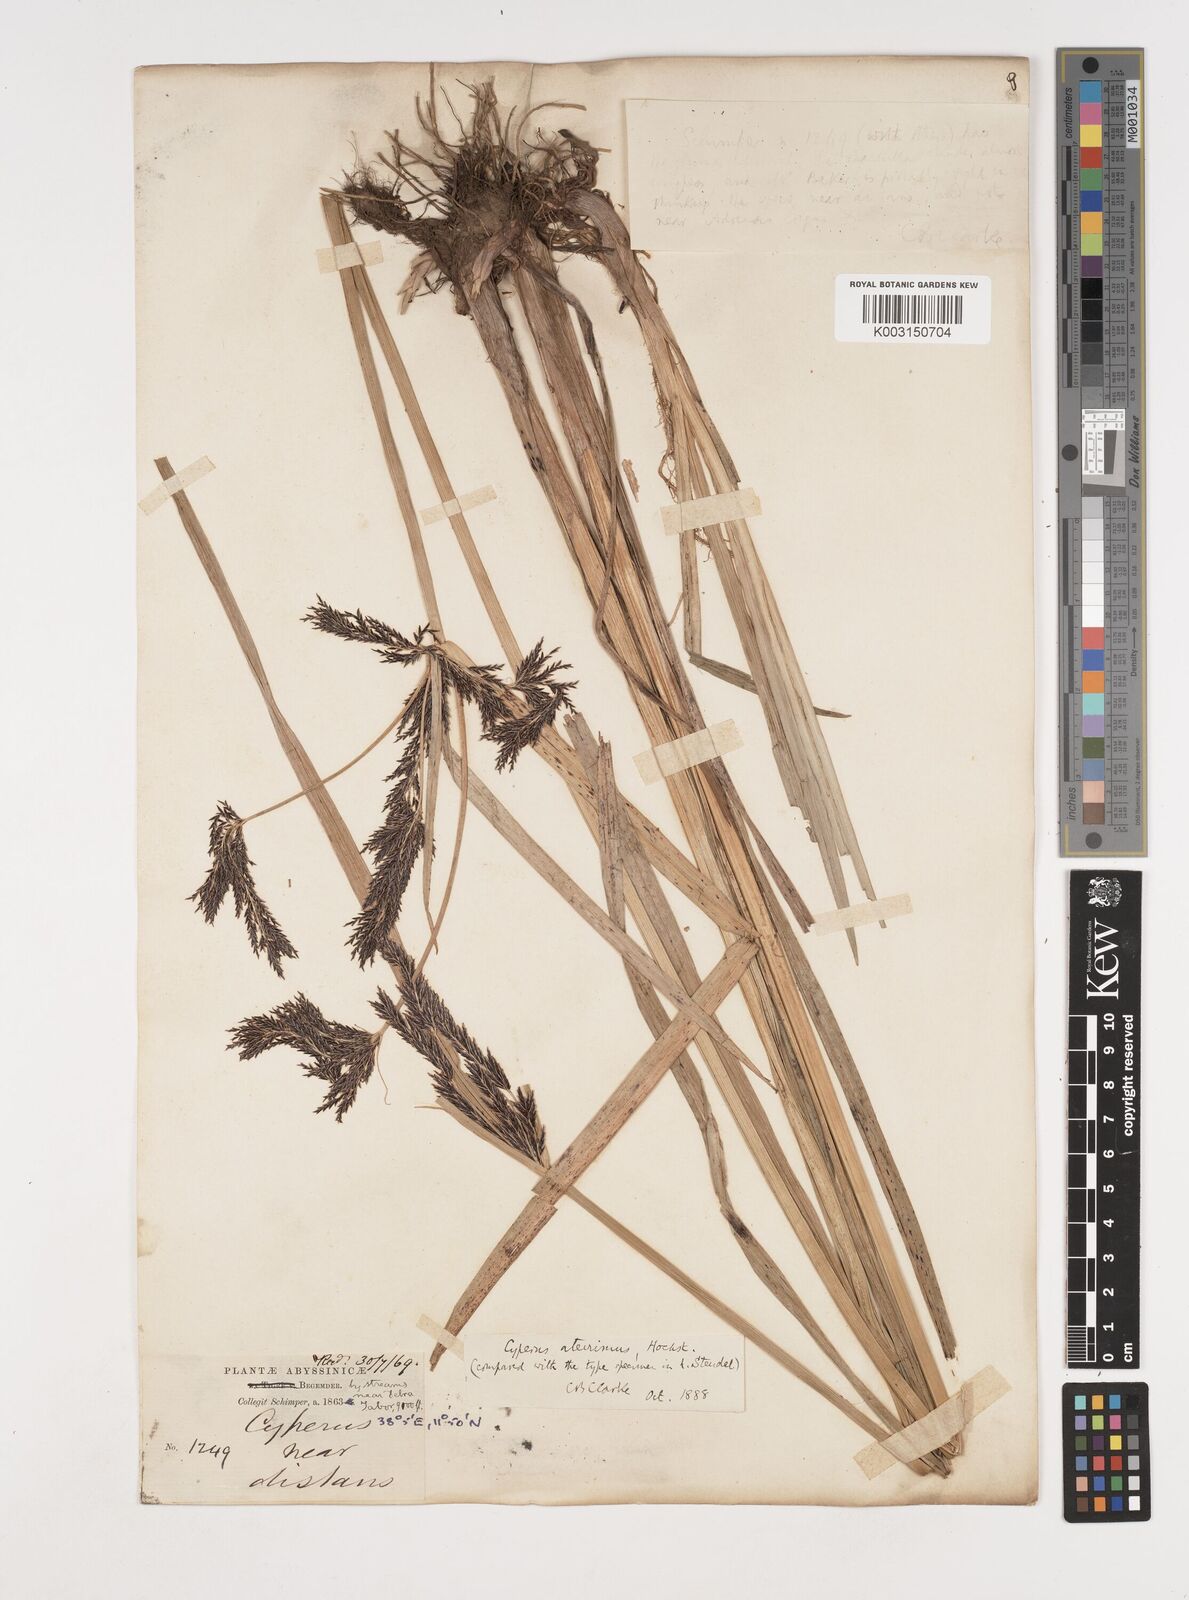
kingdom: Plantae
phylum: Tracheophyta
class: Liliopsida
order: Poales
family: Cyperaceae
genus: Cyperus
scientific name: Cyperus aterrimus
